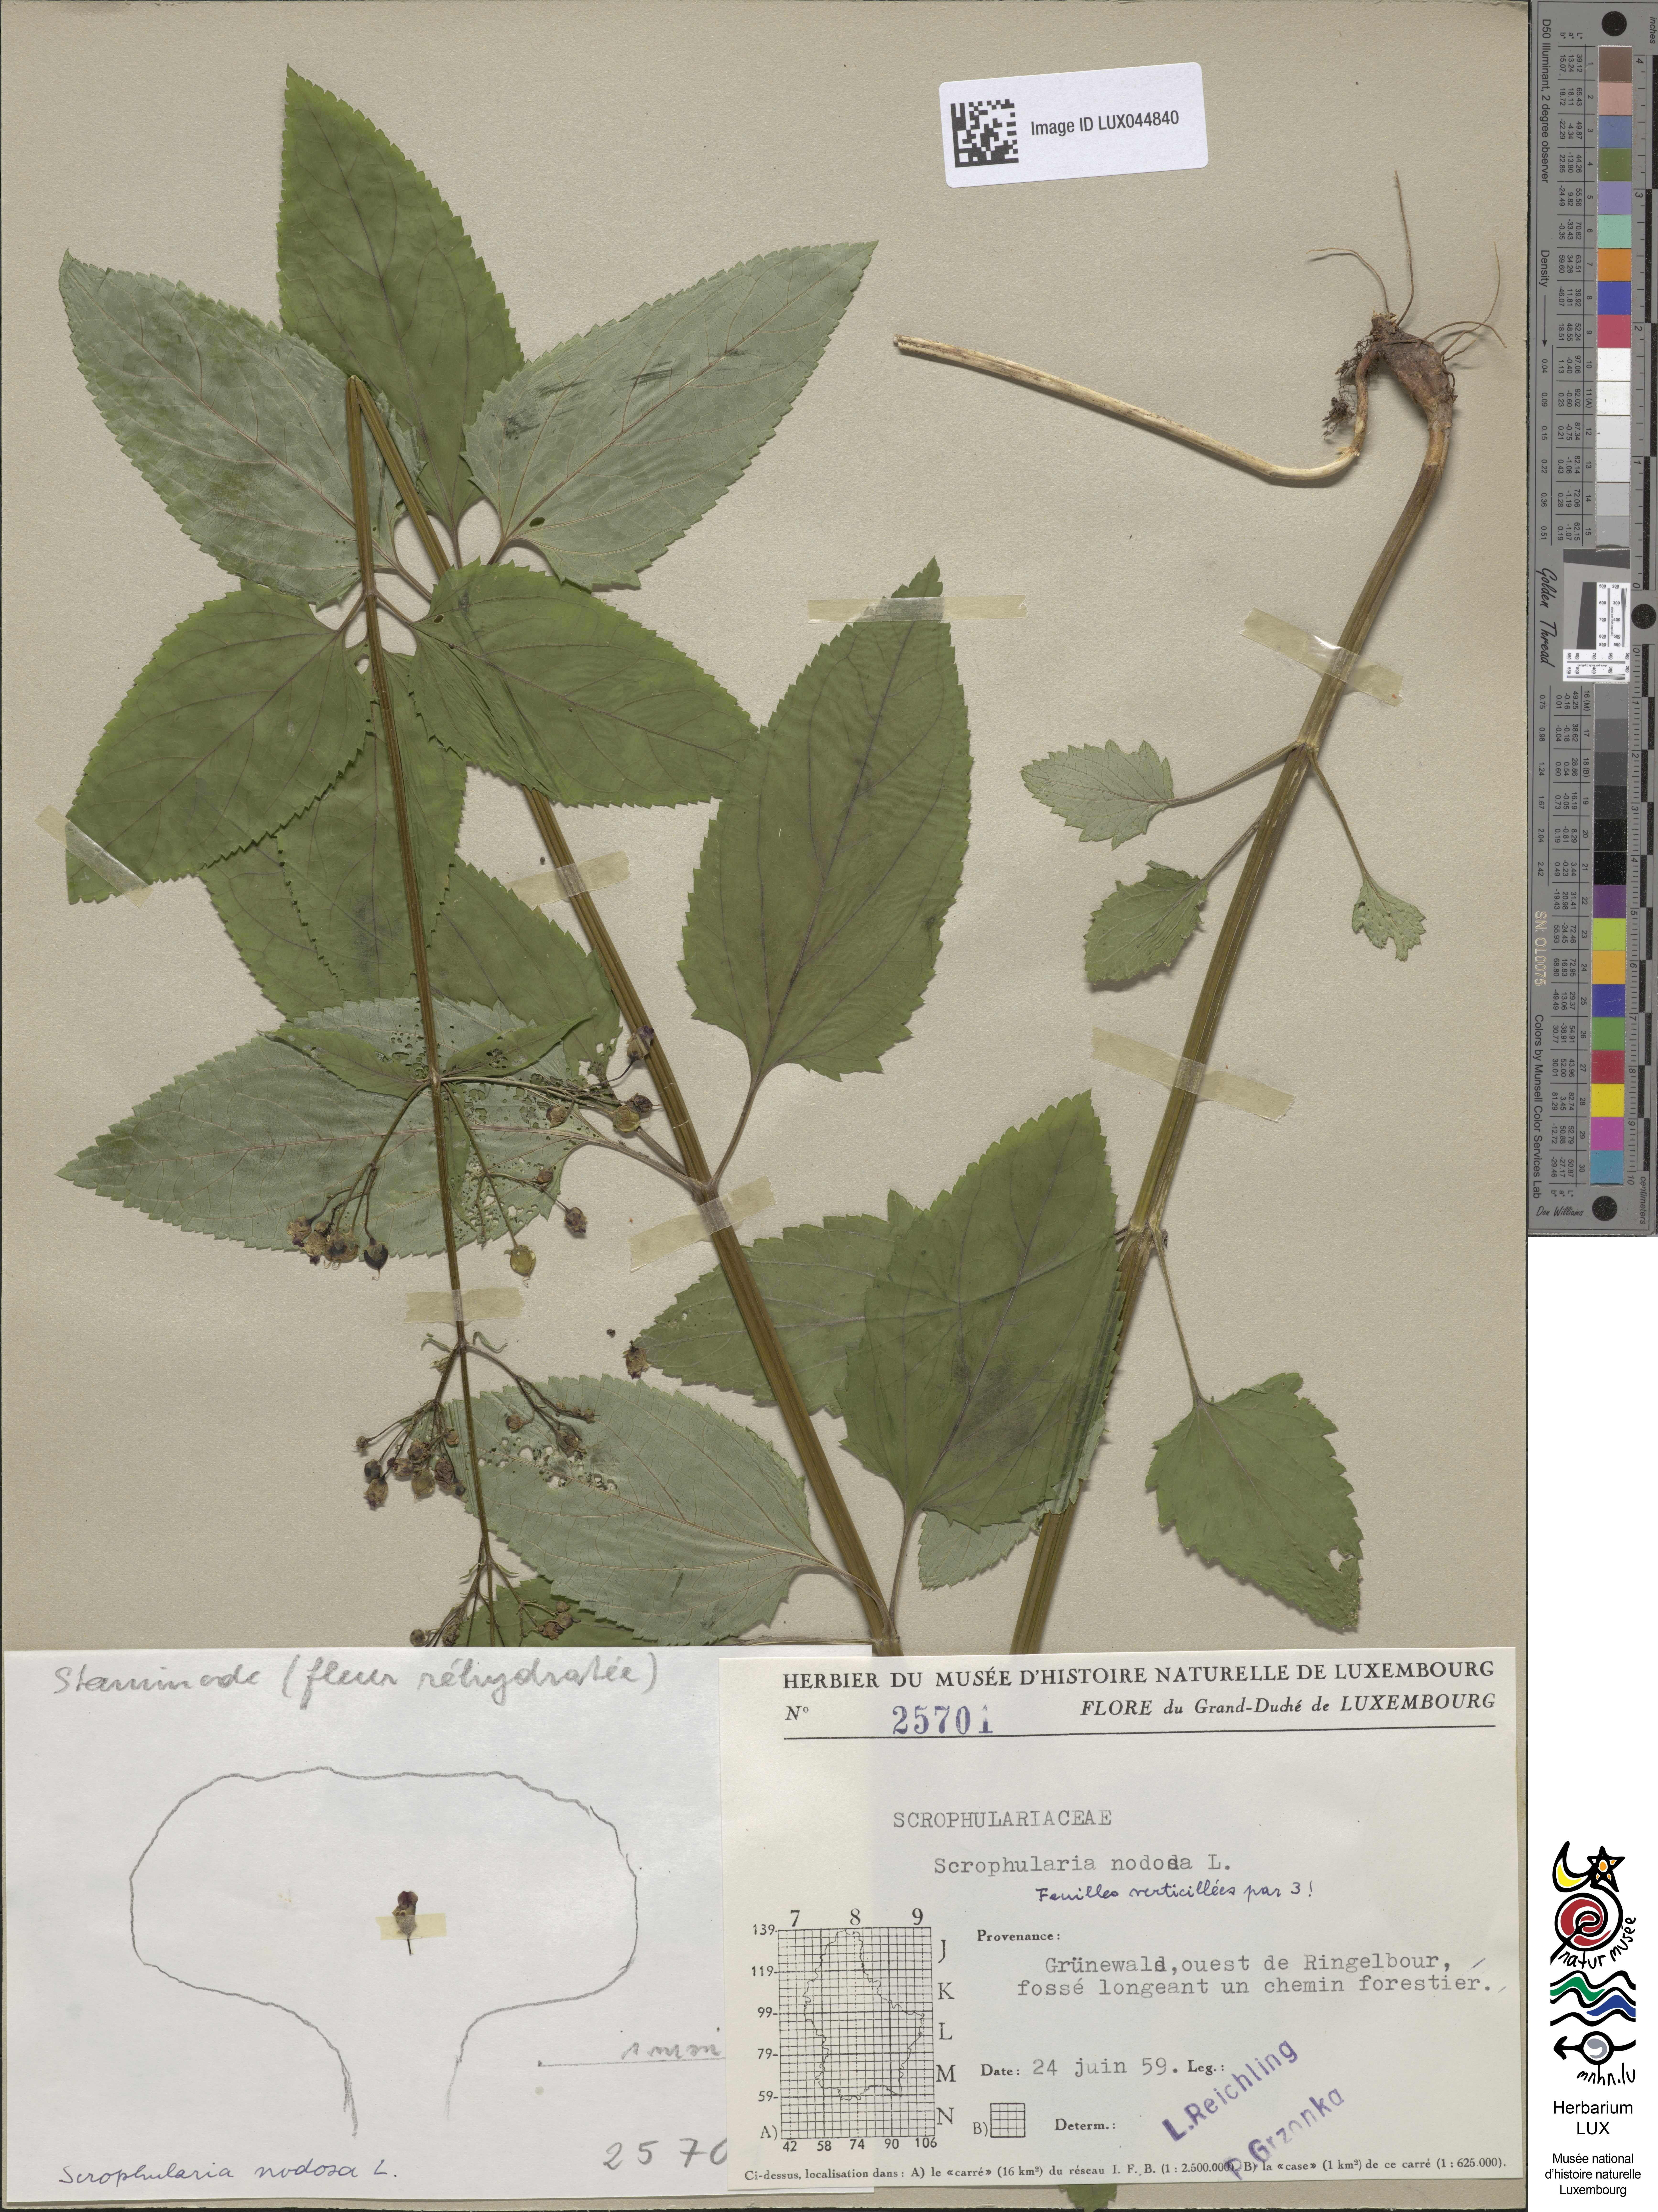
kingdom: Plantae
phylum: Tracheophyta
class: Magnoliopsida
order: Lamiales
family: Scrophulariaceae
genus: Scrophularia
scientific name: Scrophularia nodosa
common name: Common figwort
